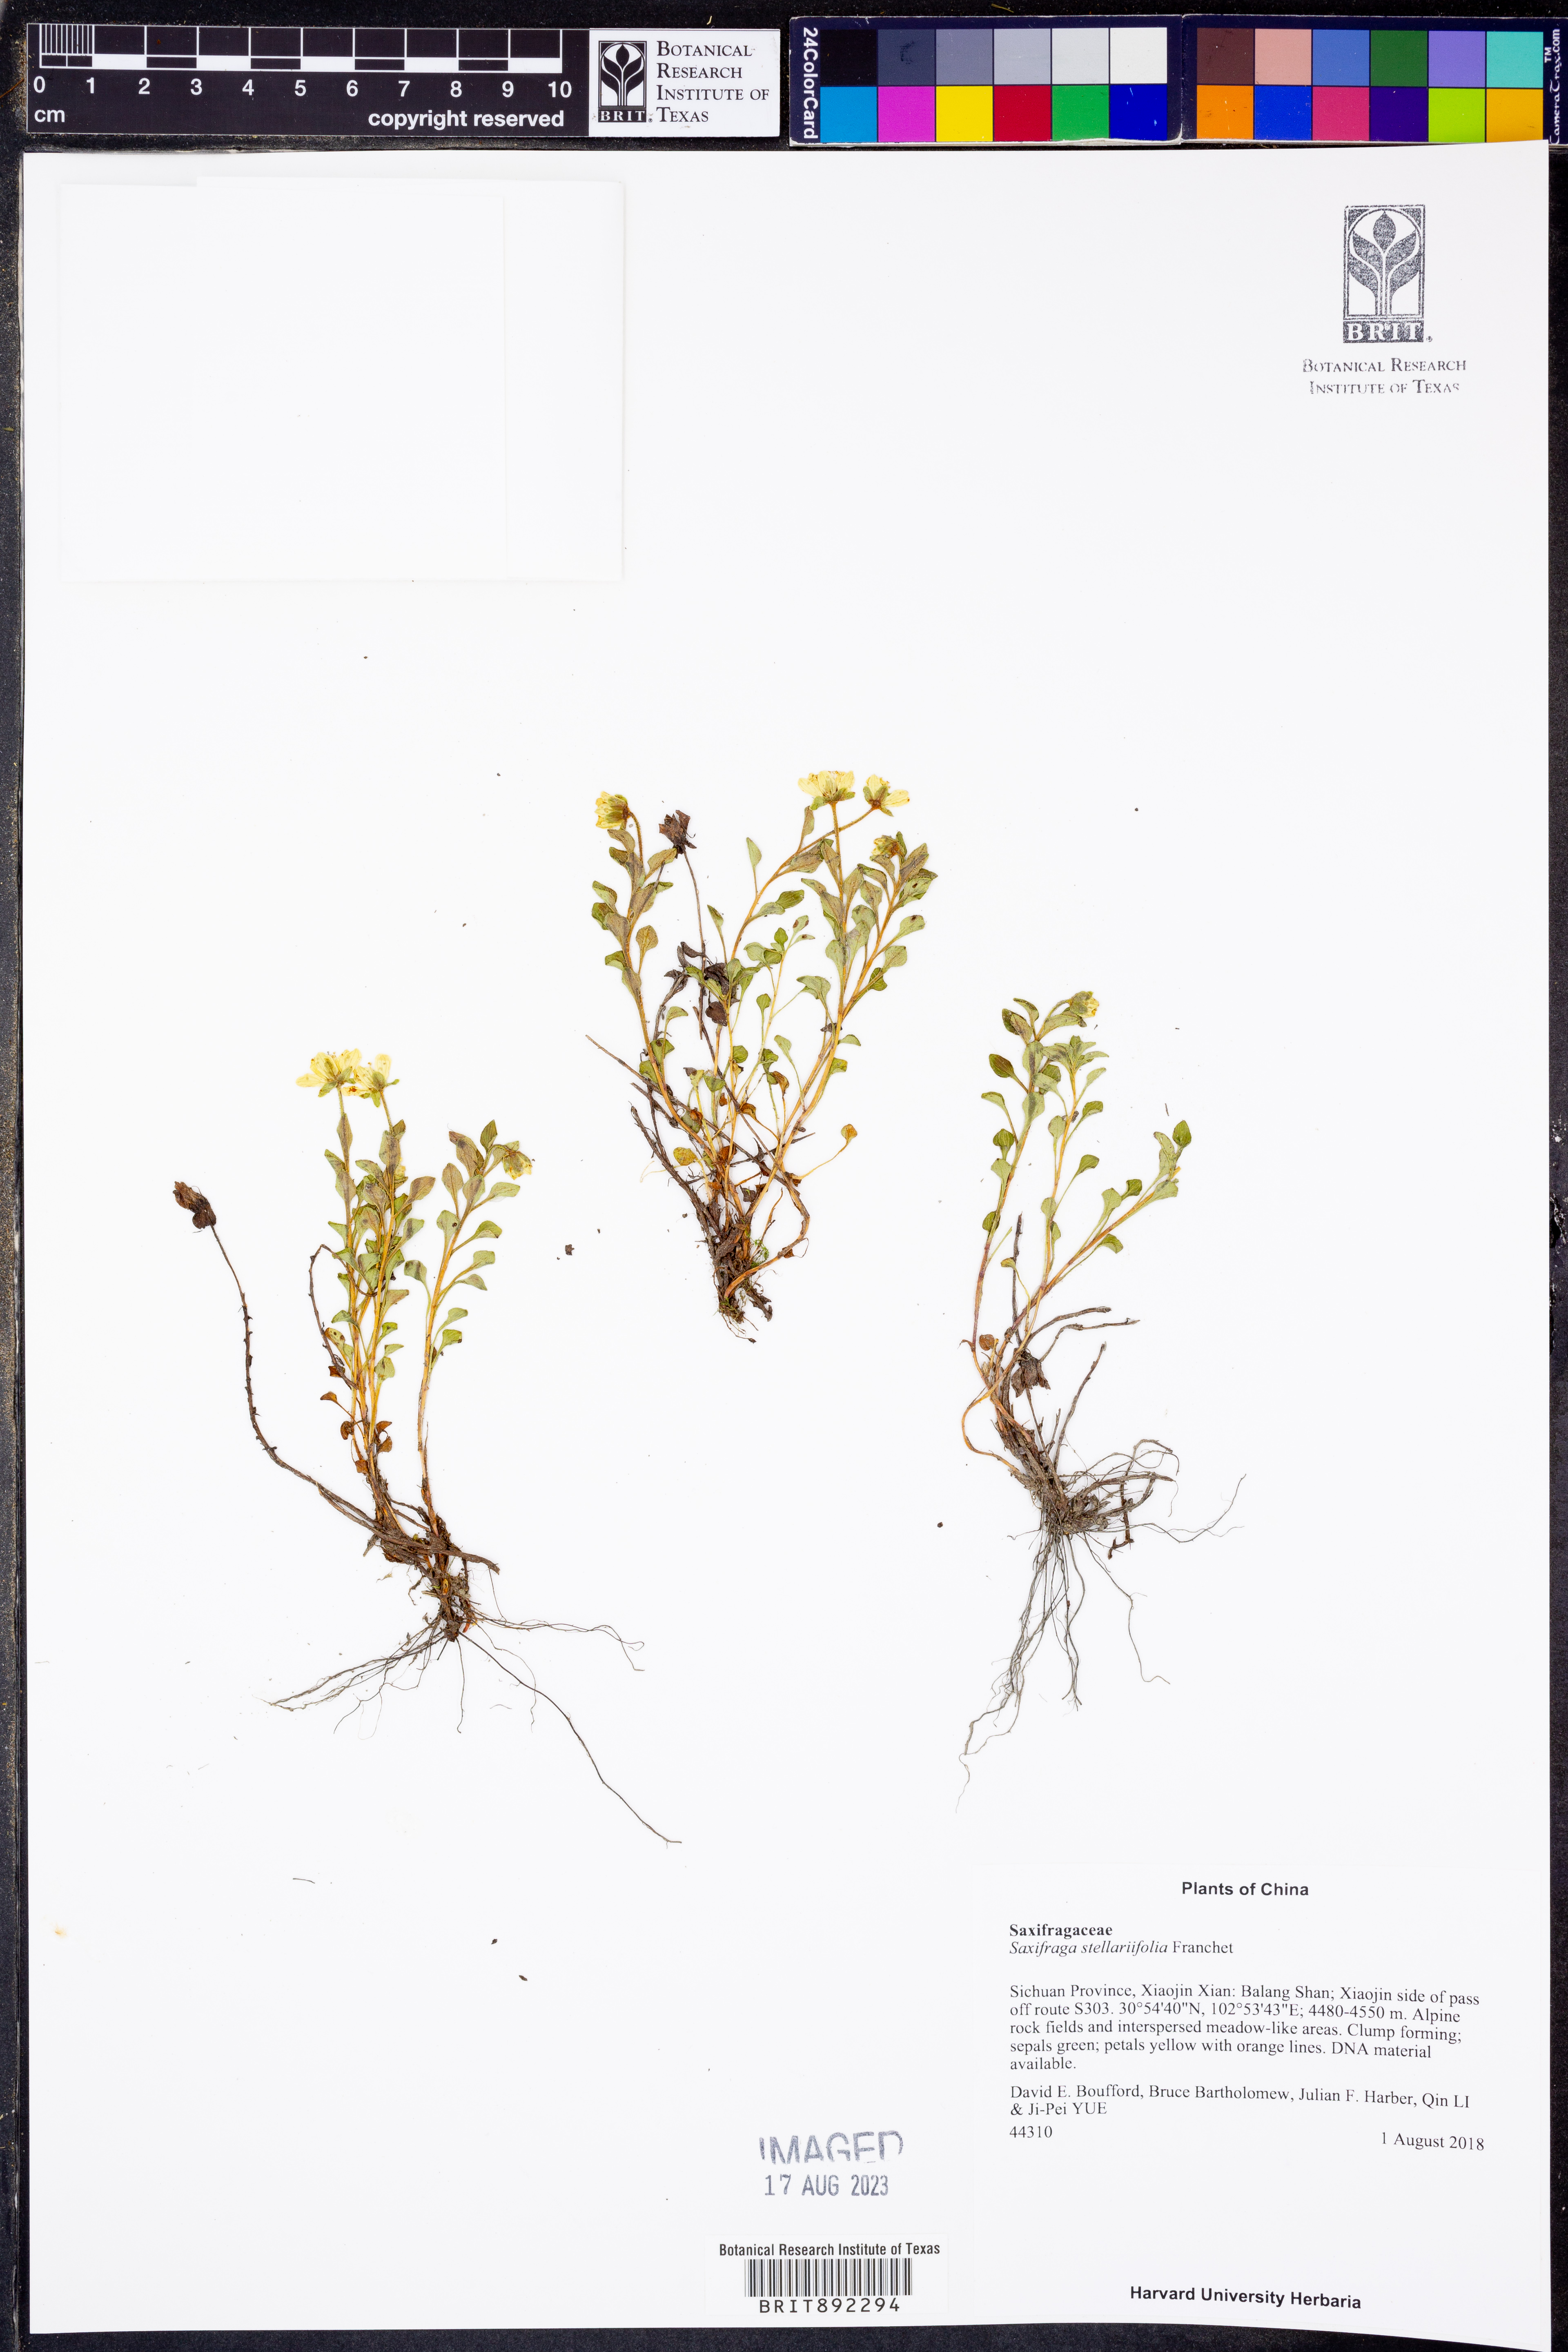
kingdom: Plantae
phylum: Tracheophyta
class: Magnoliopsida
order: Saxifragales
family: Saxifragaceae
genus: Saxifraga
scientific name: Saxifraga stellariifolia
